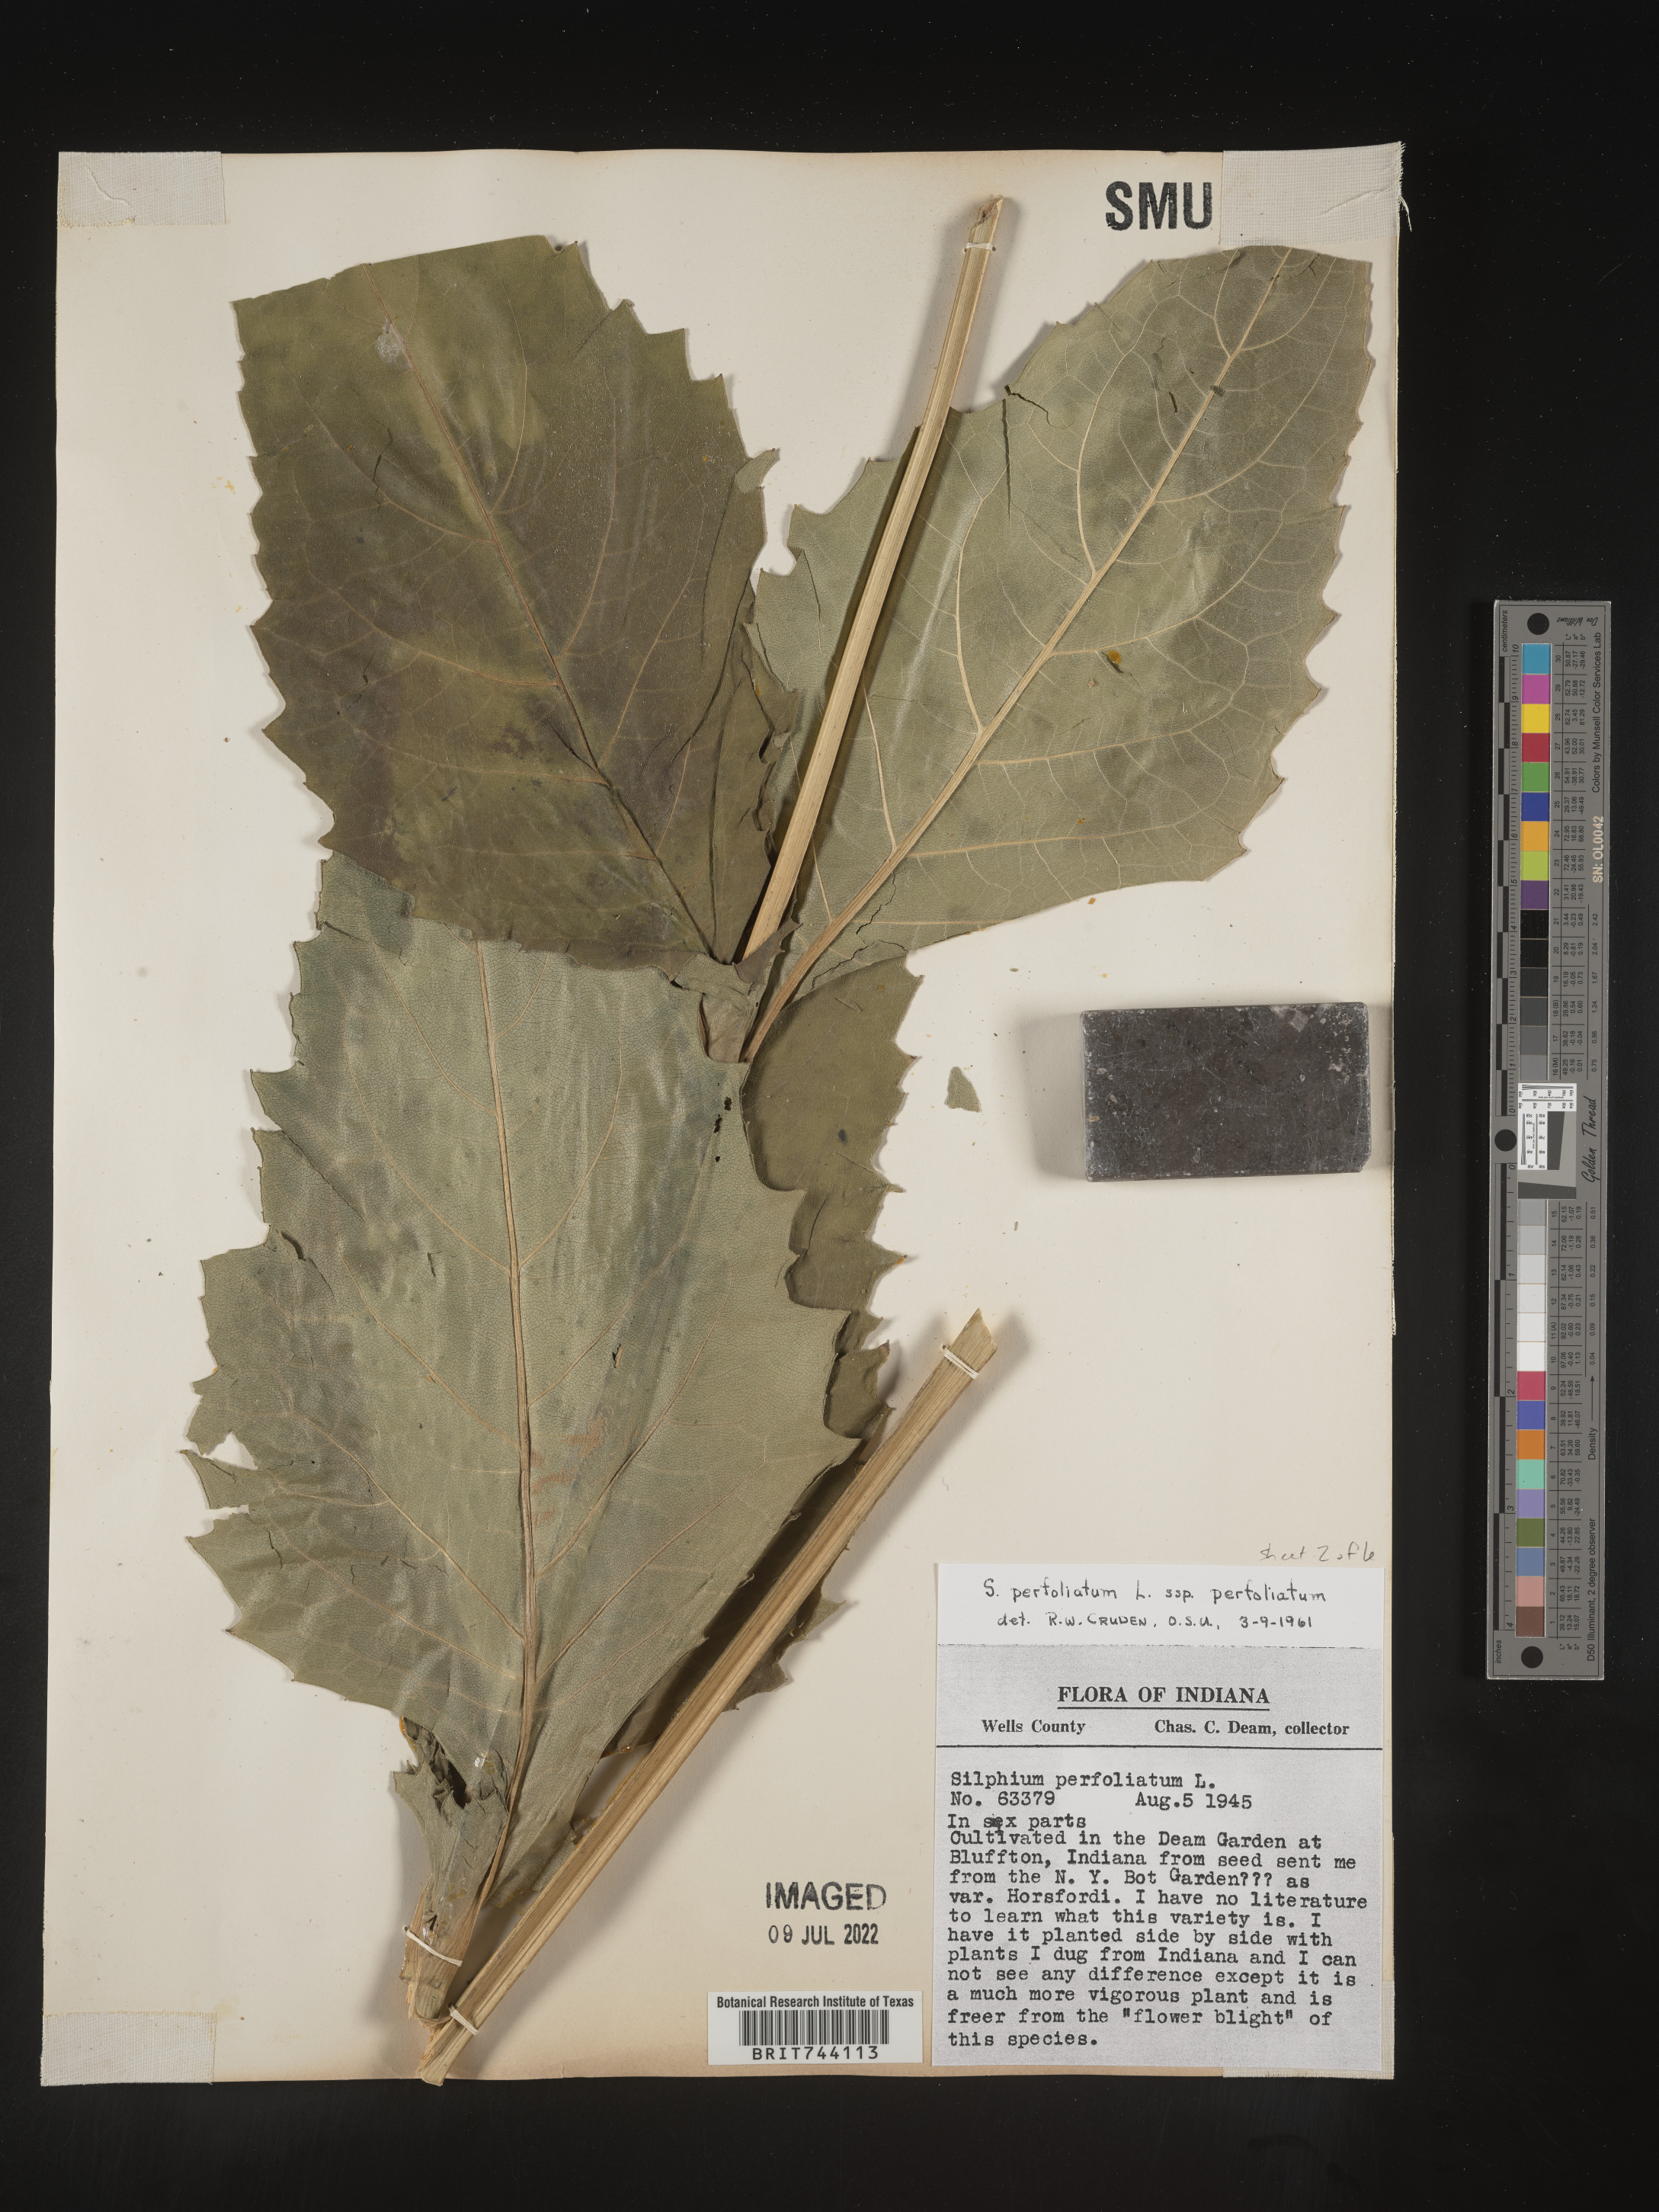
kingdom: Plantae
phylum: Tracheophyta
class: Magnoliopsida
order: Asterales
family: Asteraceae
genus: Silphium
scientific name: Silphium
